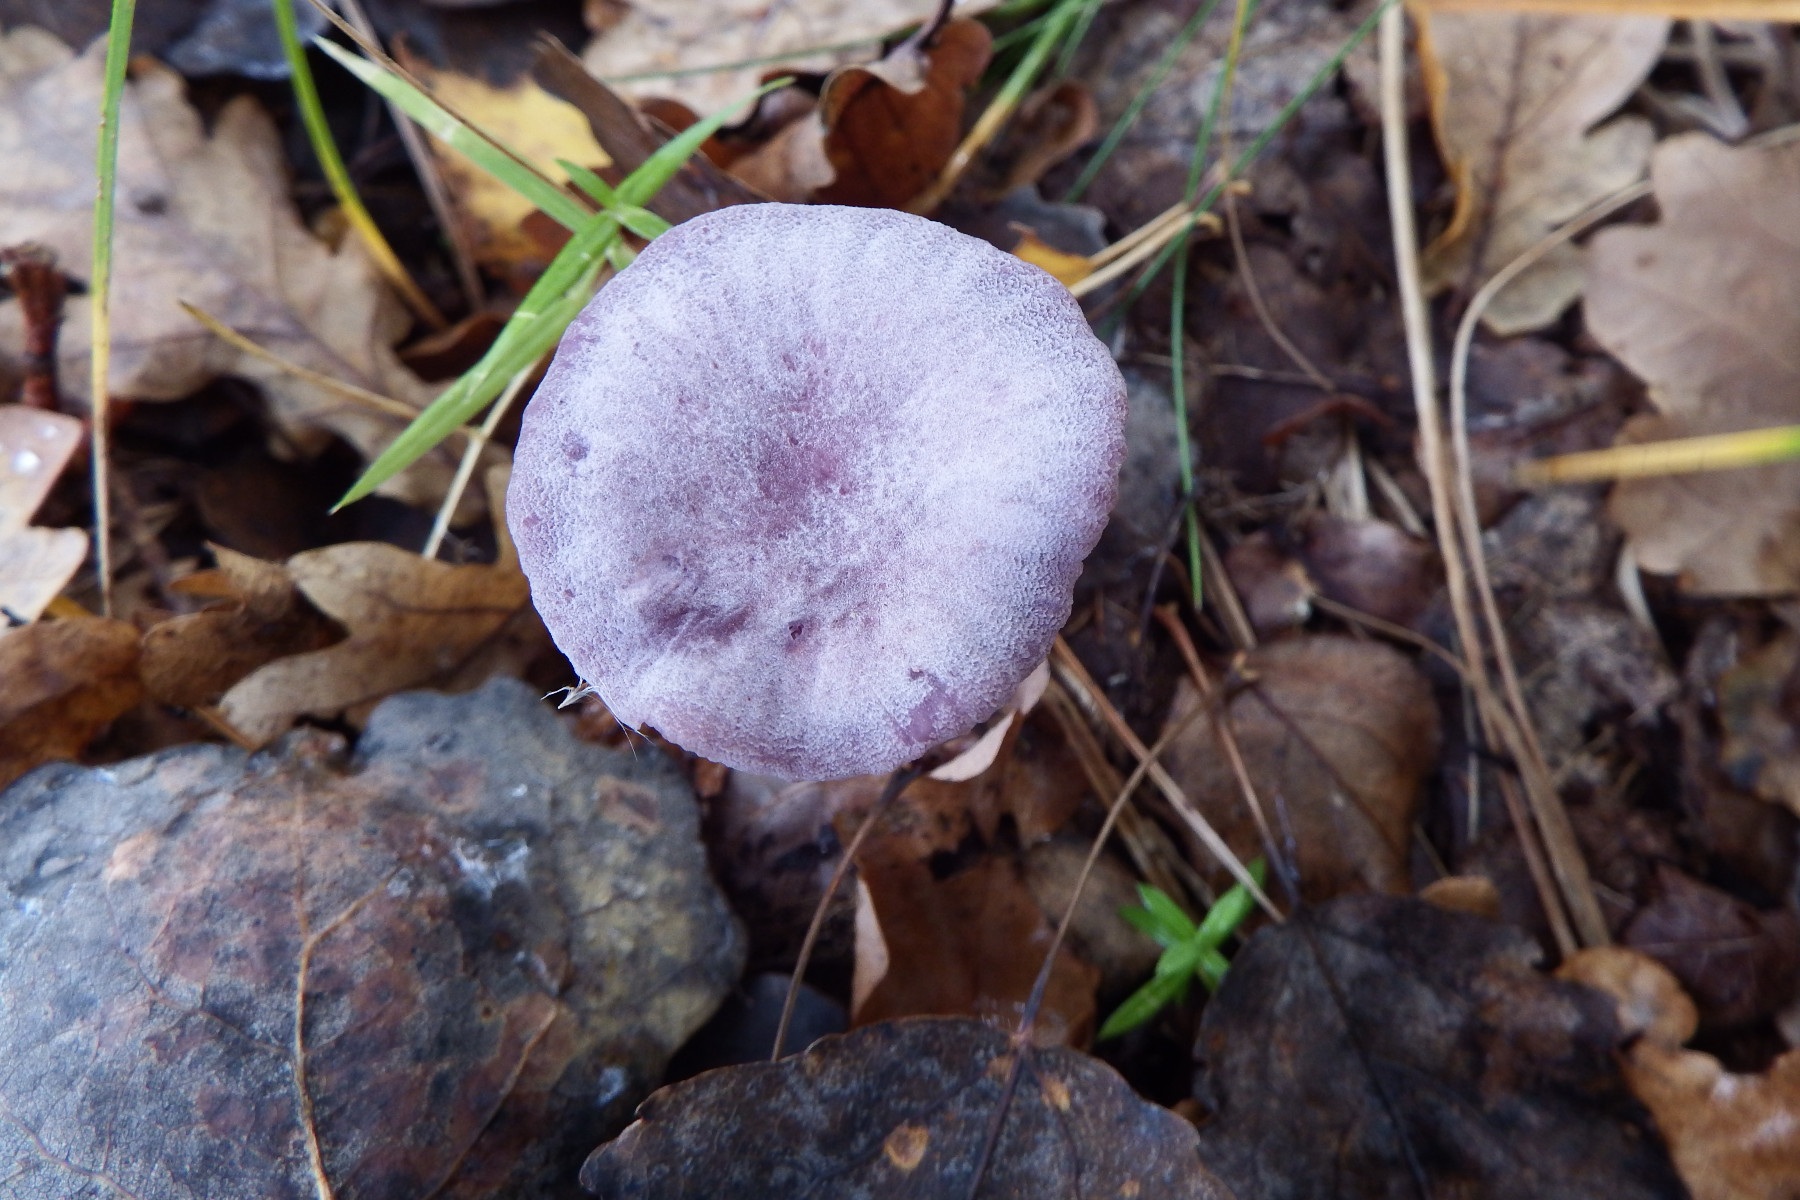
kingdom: Fungi
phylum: Basidiomycota
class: Agaricomycetes
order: Agaricales
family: Hydnangiaceae
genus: Laccaria
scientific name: Laccaria amethystina
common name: violet ametysthat
